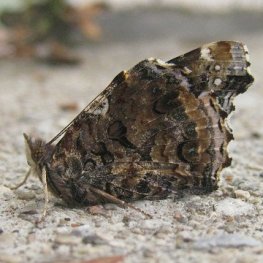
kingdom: Animalia
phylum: Arthropoda
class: Insecta
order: Lepidoptera
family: Nymphalidae
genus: Vanessa
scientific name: Vanessa atalanta
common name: Red Admiral
